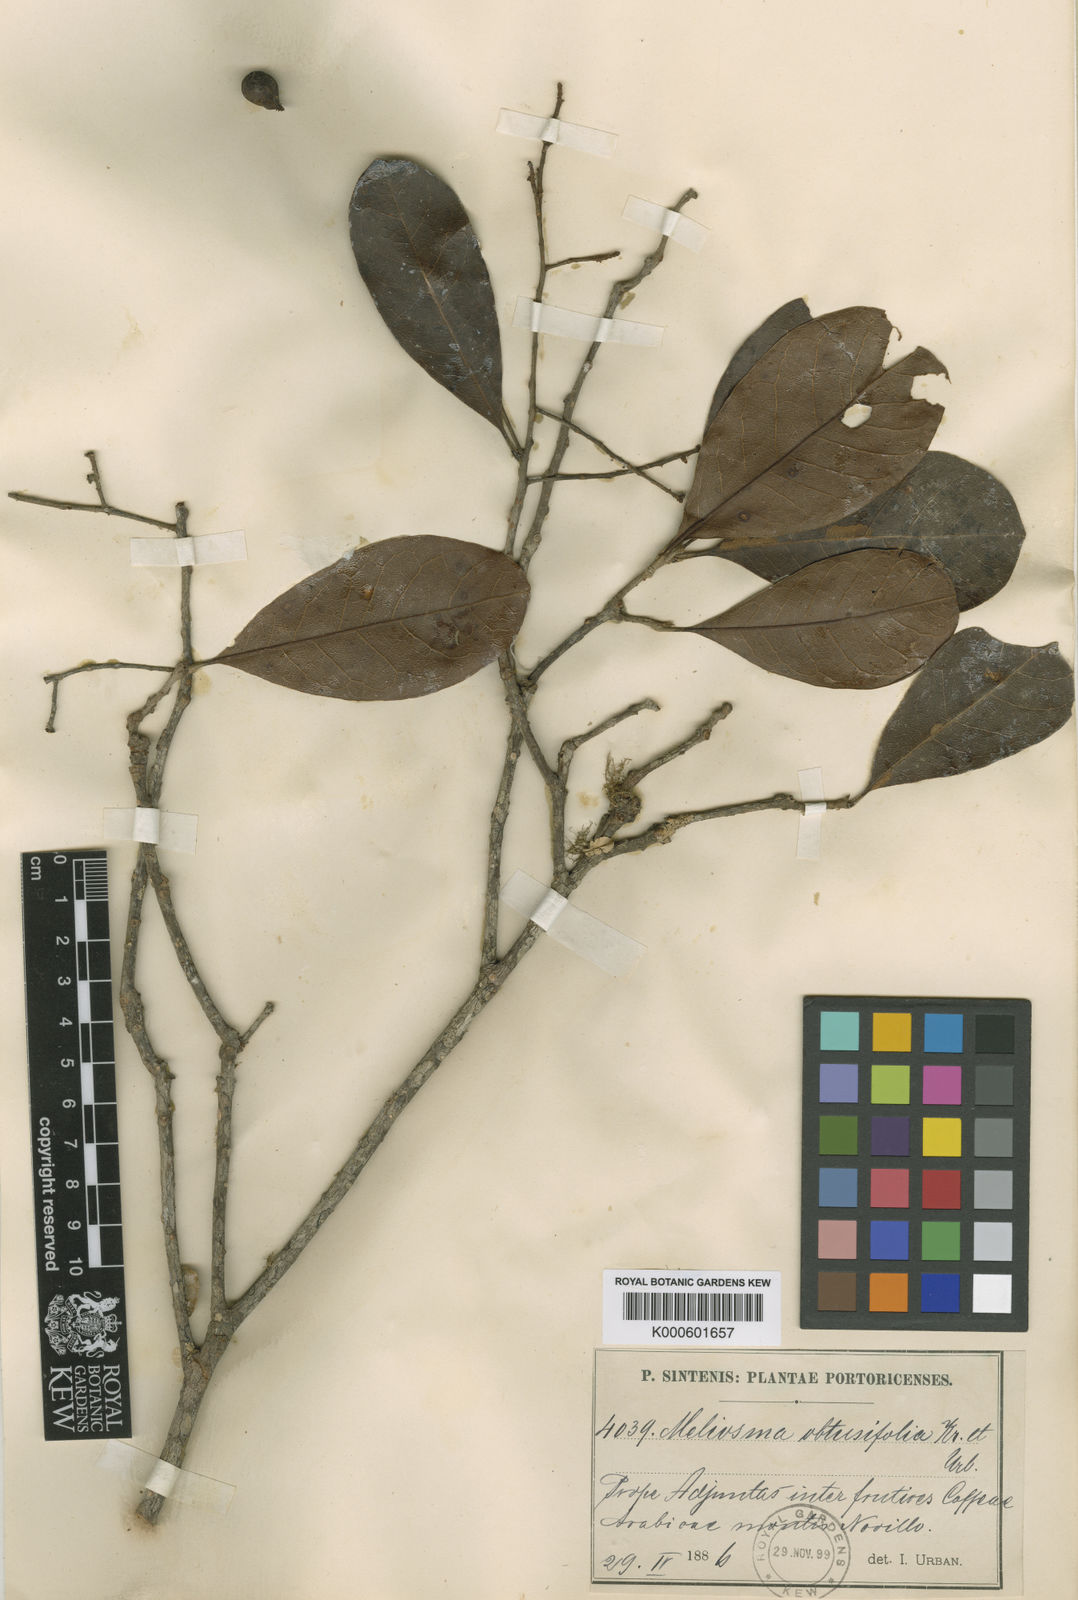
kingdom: Plantae
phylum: Tracheophyta
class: Magnoliopsida
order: Proteales
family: Sabiaceae
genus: Meliosma
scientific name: Meliosma obtusifolia
